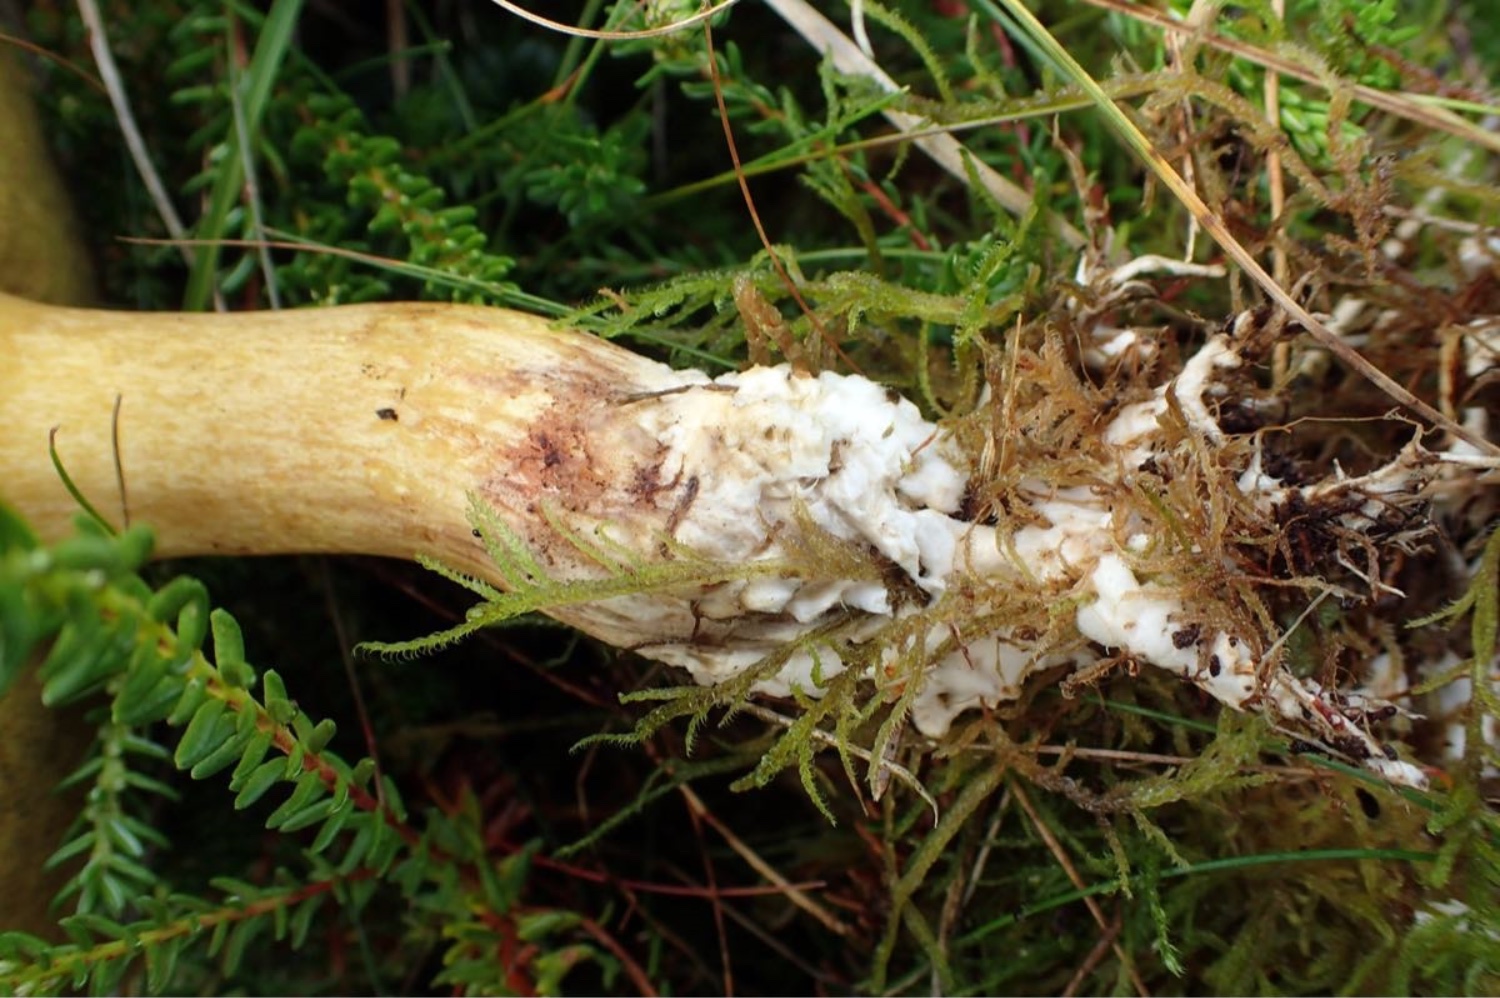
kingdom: Fungi
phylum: Basidiomycota
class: Agaricomycetes
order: Boletales
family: Suillaceae
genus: Suillus
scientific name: Suillus variegatus
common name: broget slimrørhat
